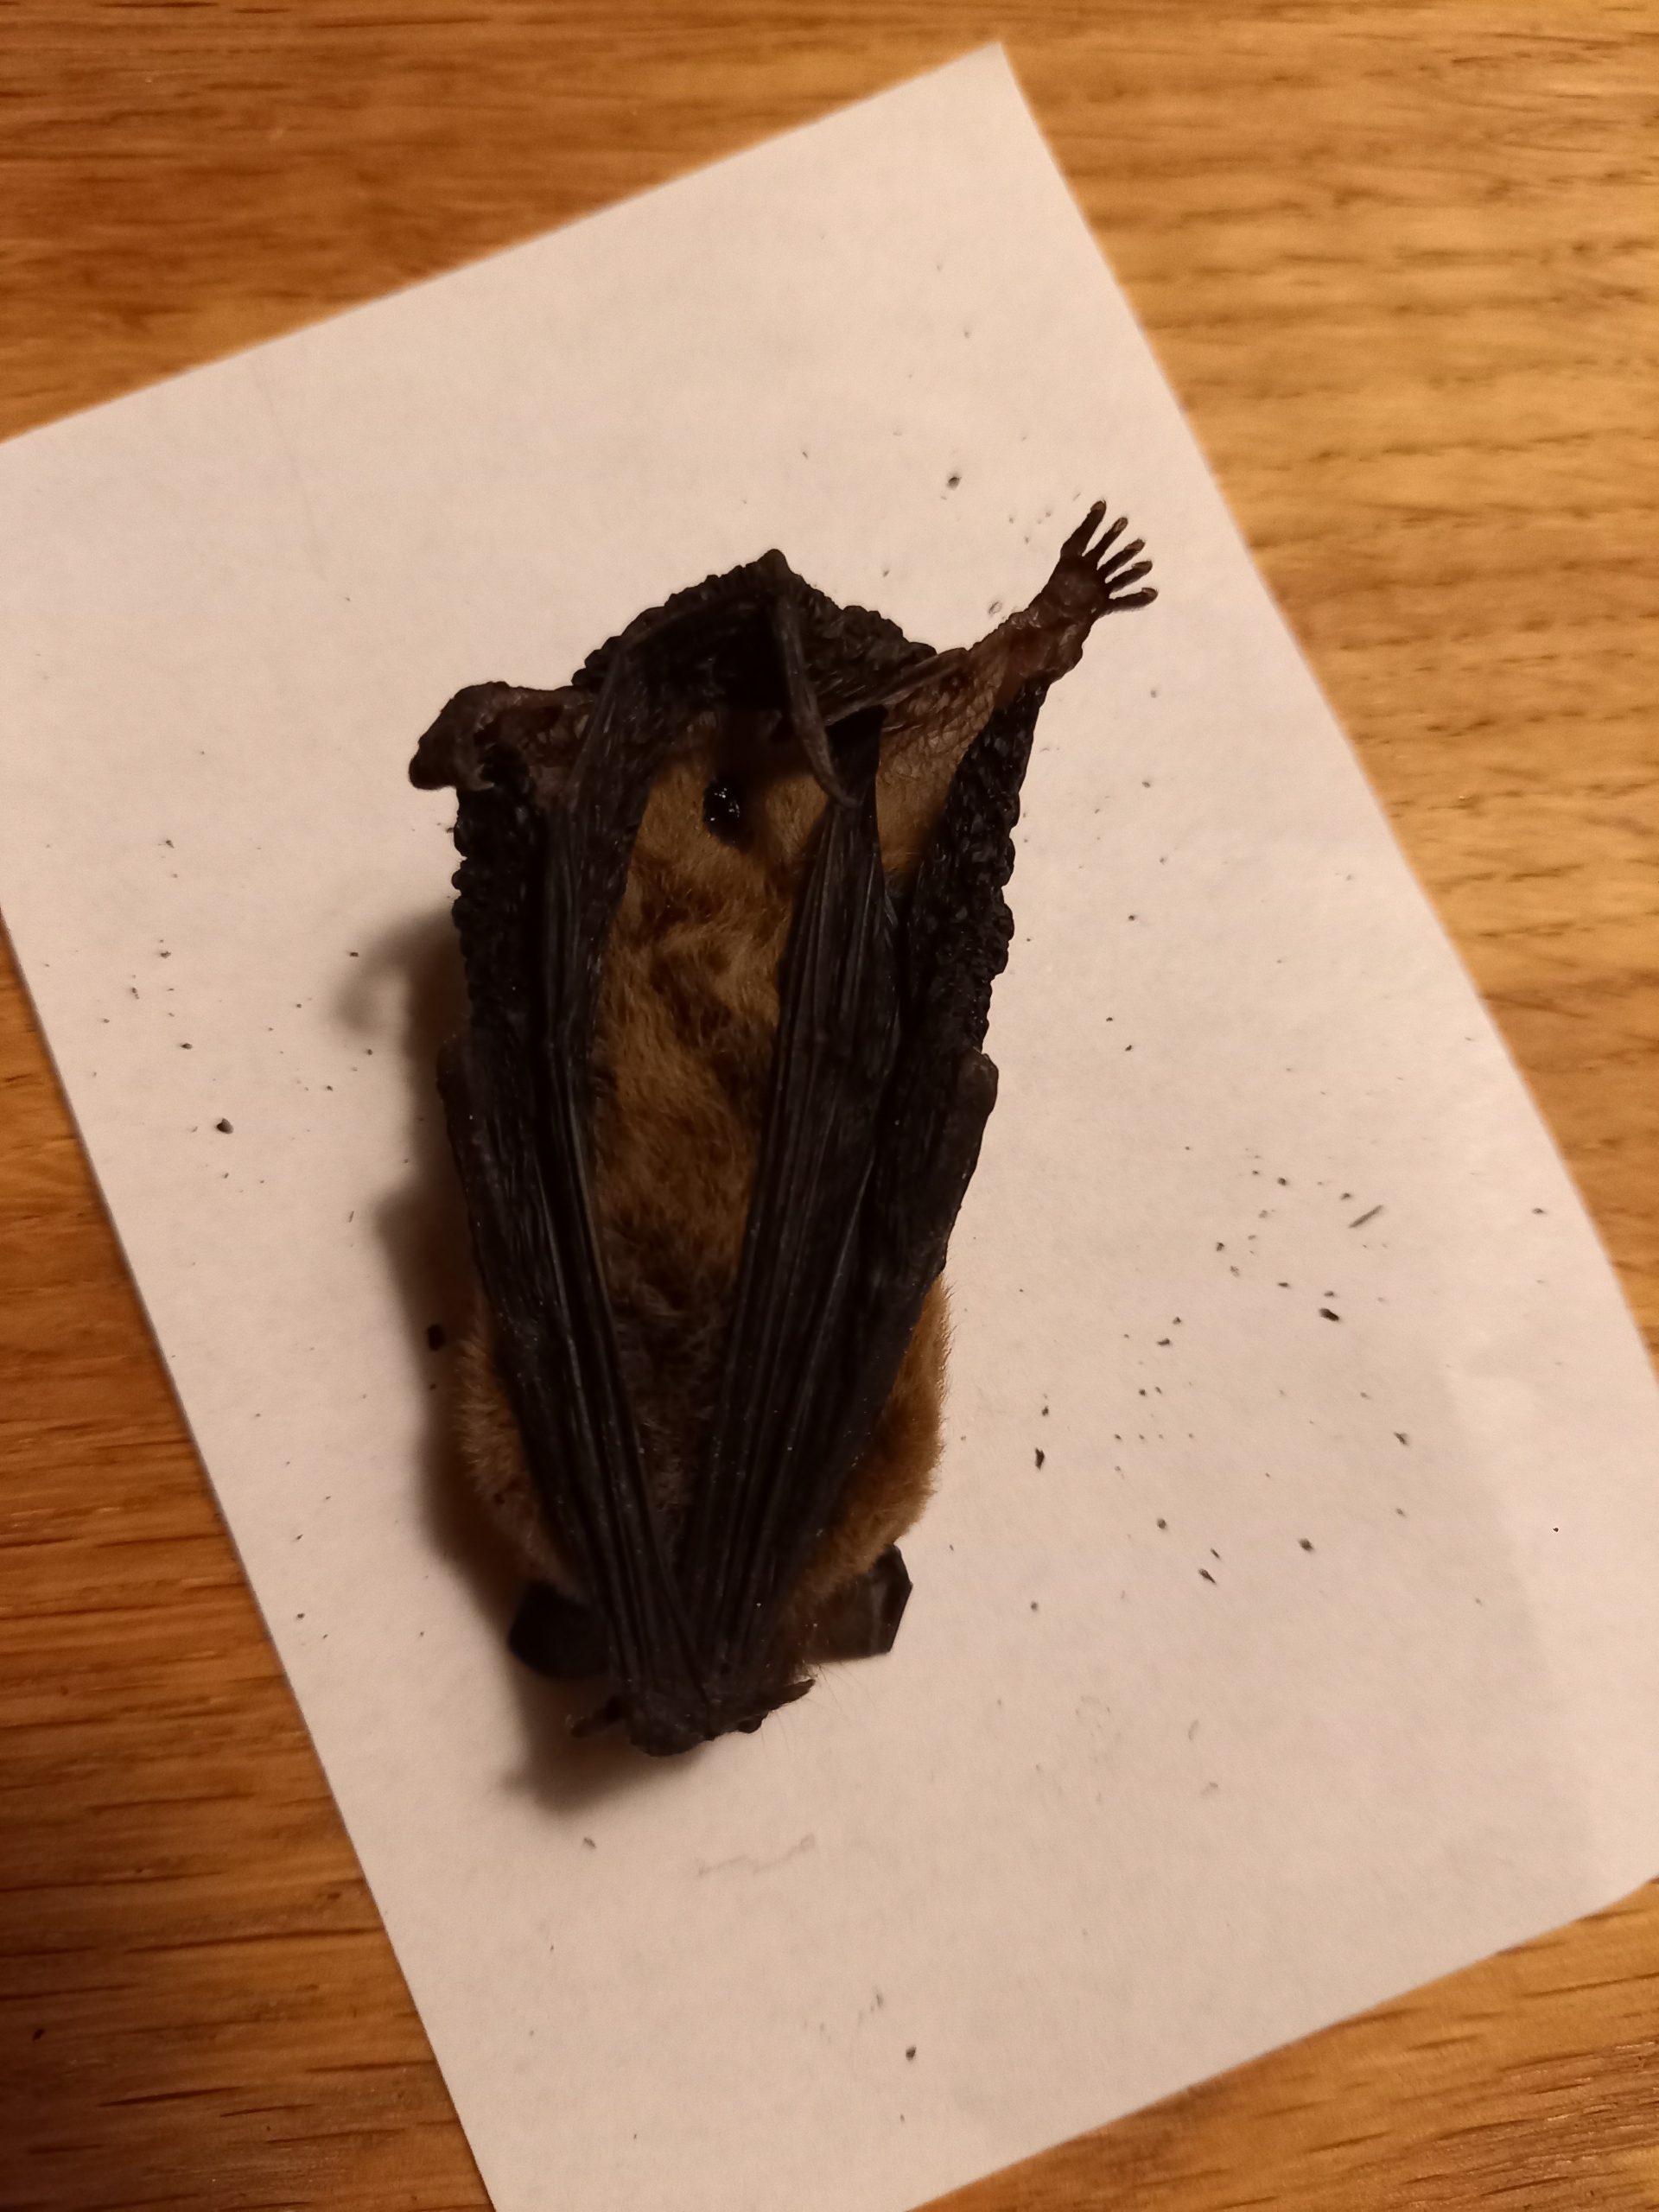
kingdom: Animalia
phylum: Chordata
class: Mammalia
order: Chiroptera
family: Vespertilionidae
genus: Pipistrellus
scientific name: Pipistrellus
